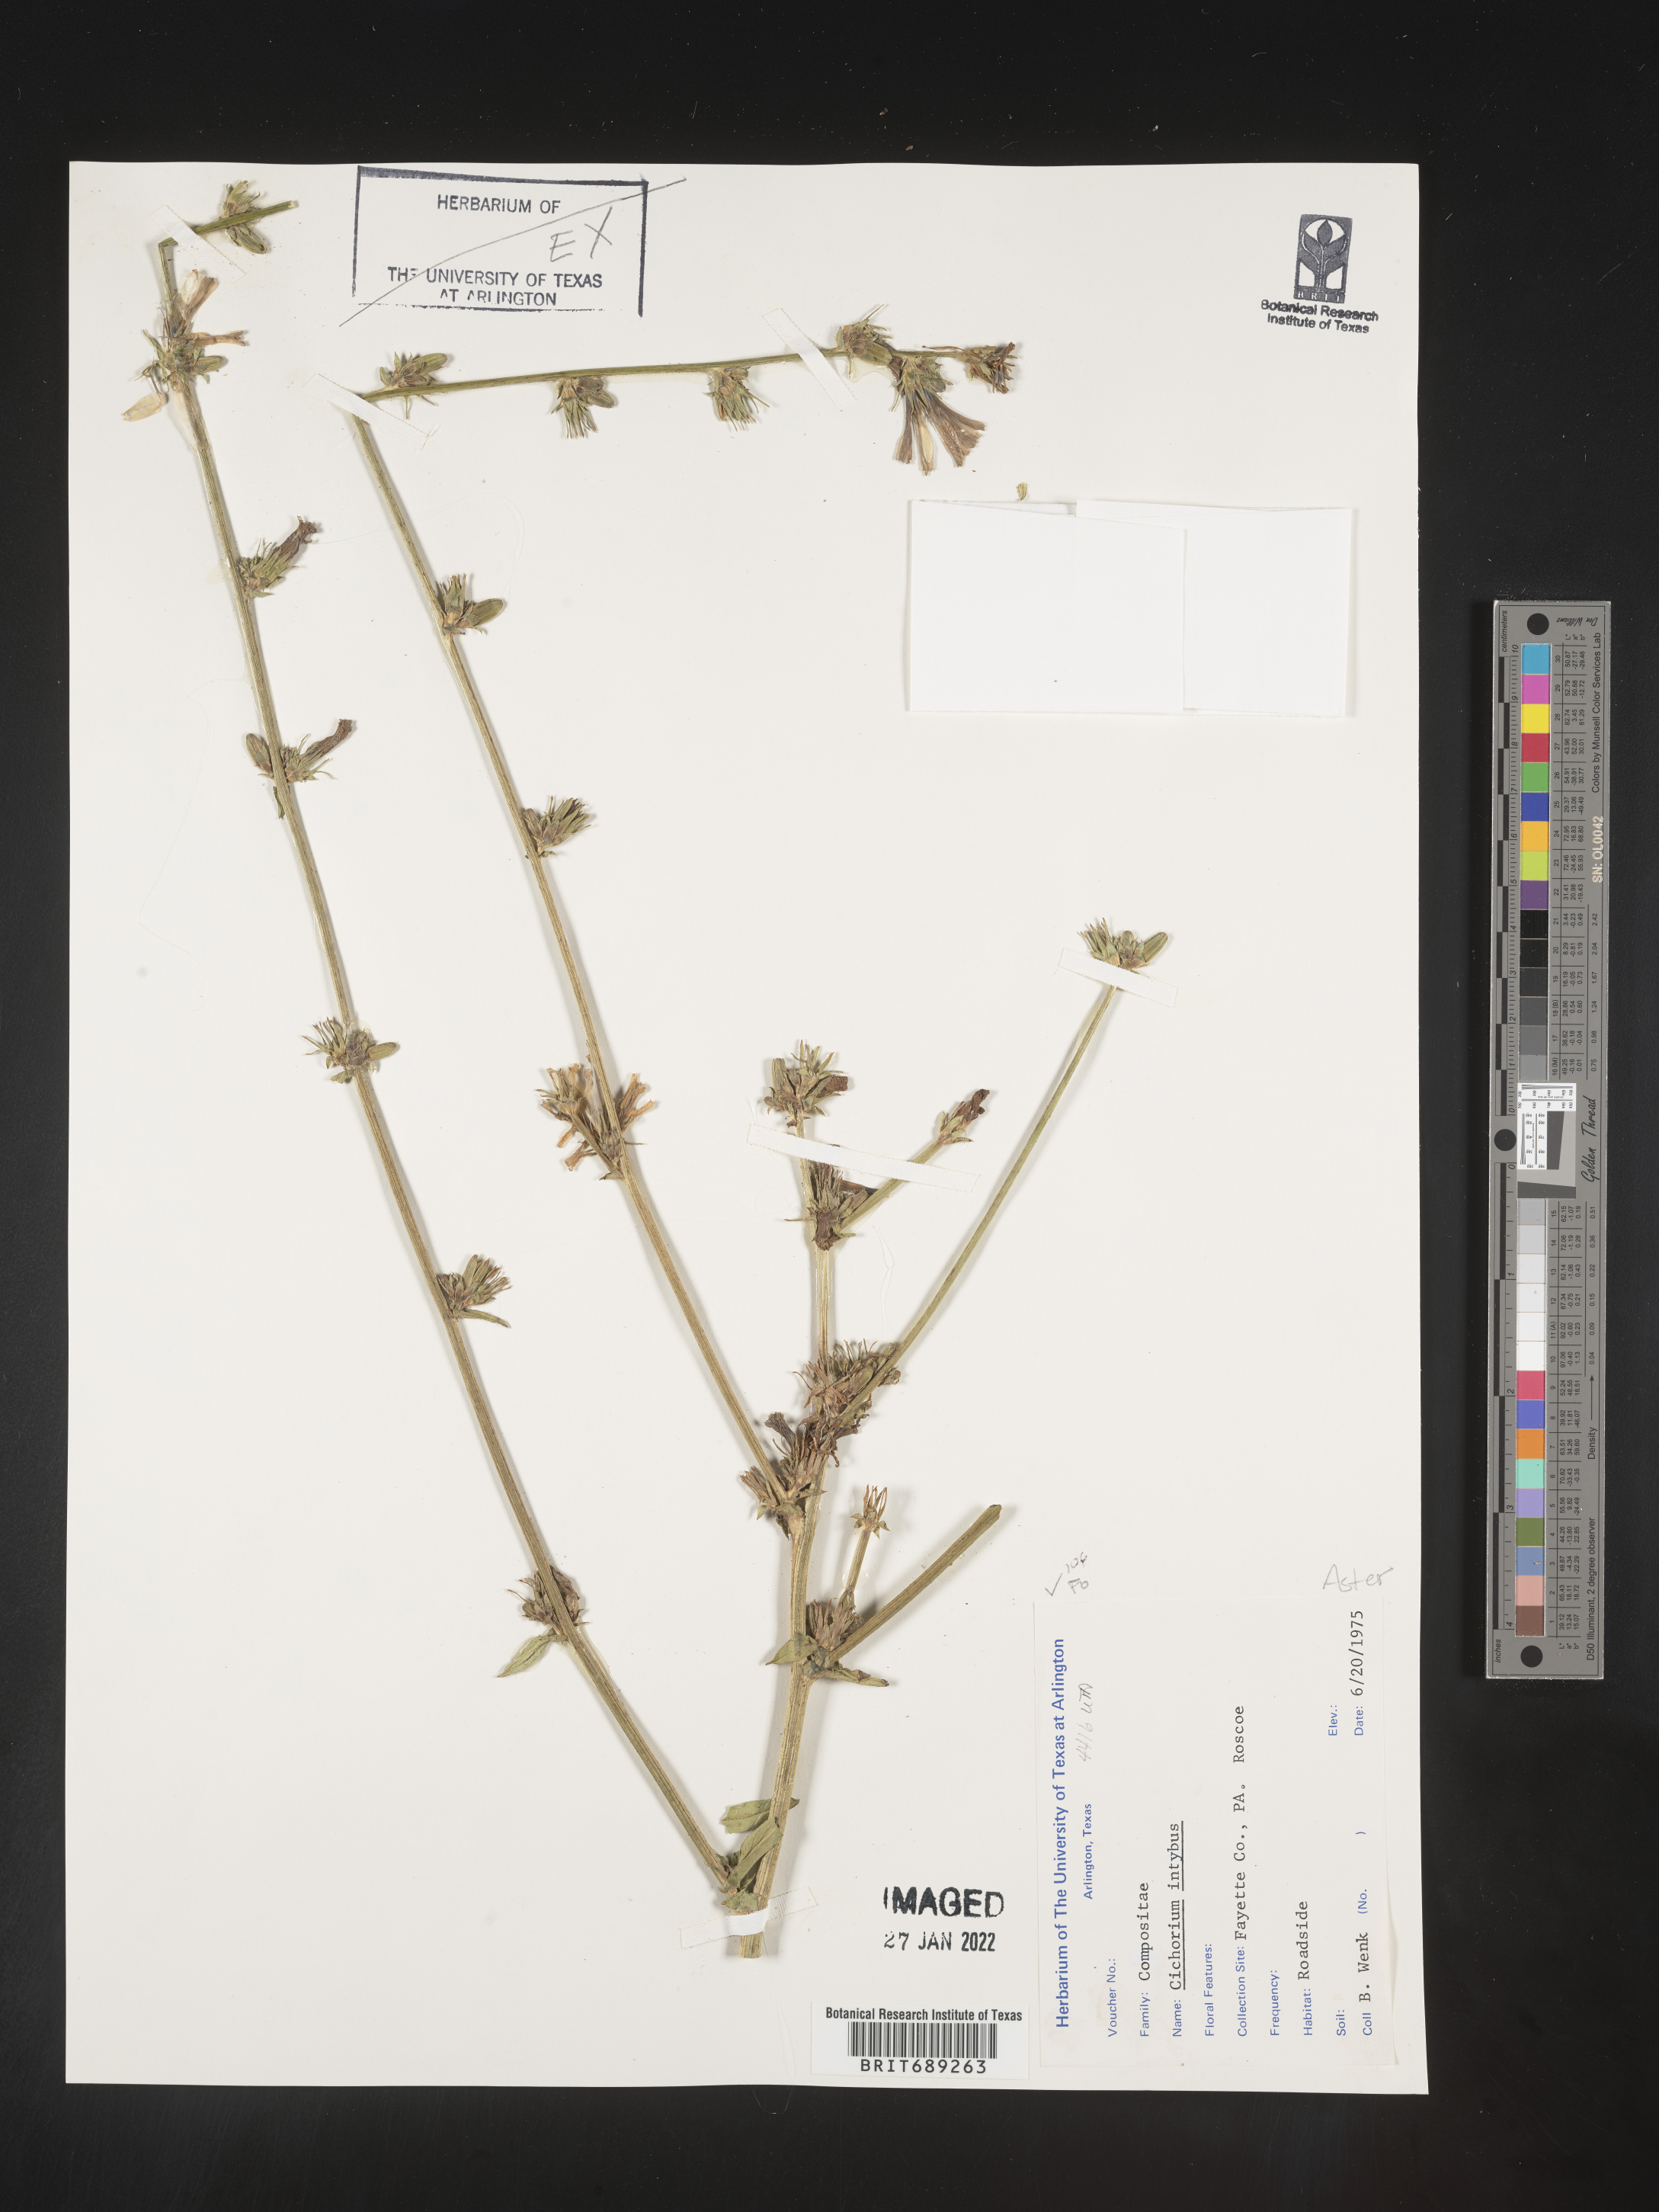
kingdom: Plantae
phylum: Tracheophyta
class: Magnoliopsida
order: Asterales
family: Asteraceae
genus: Cichorium
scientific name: Cichorium intybus
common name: Chicory
